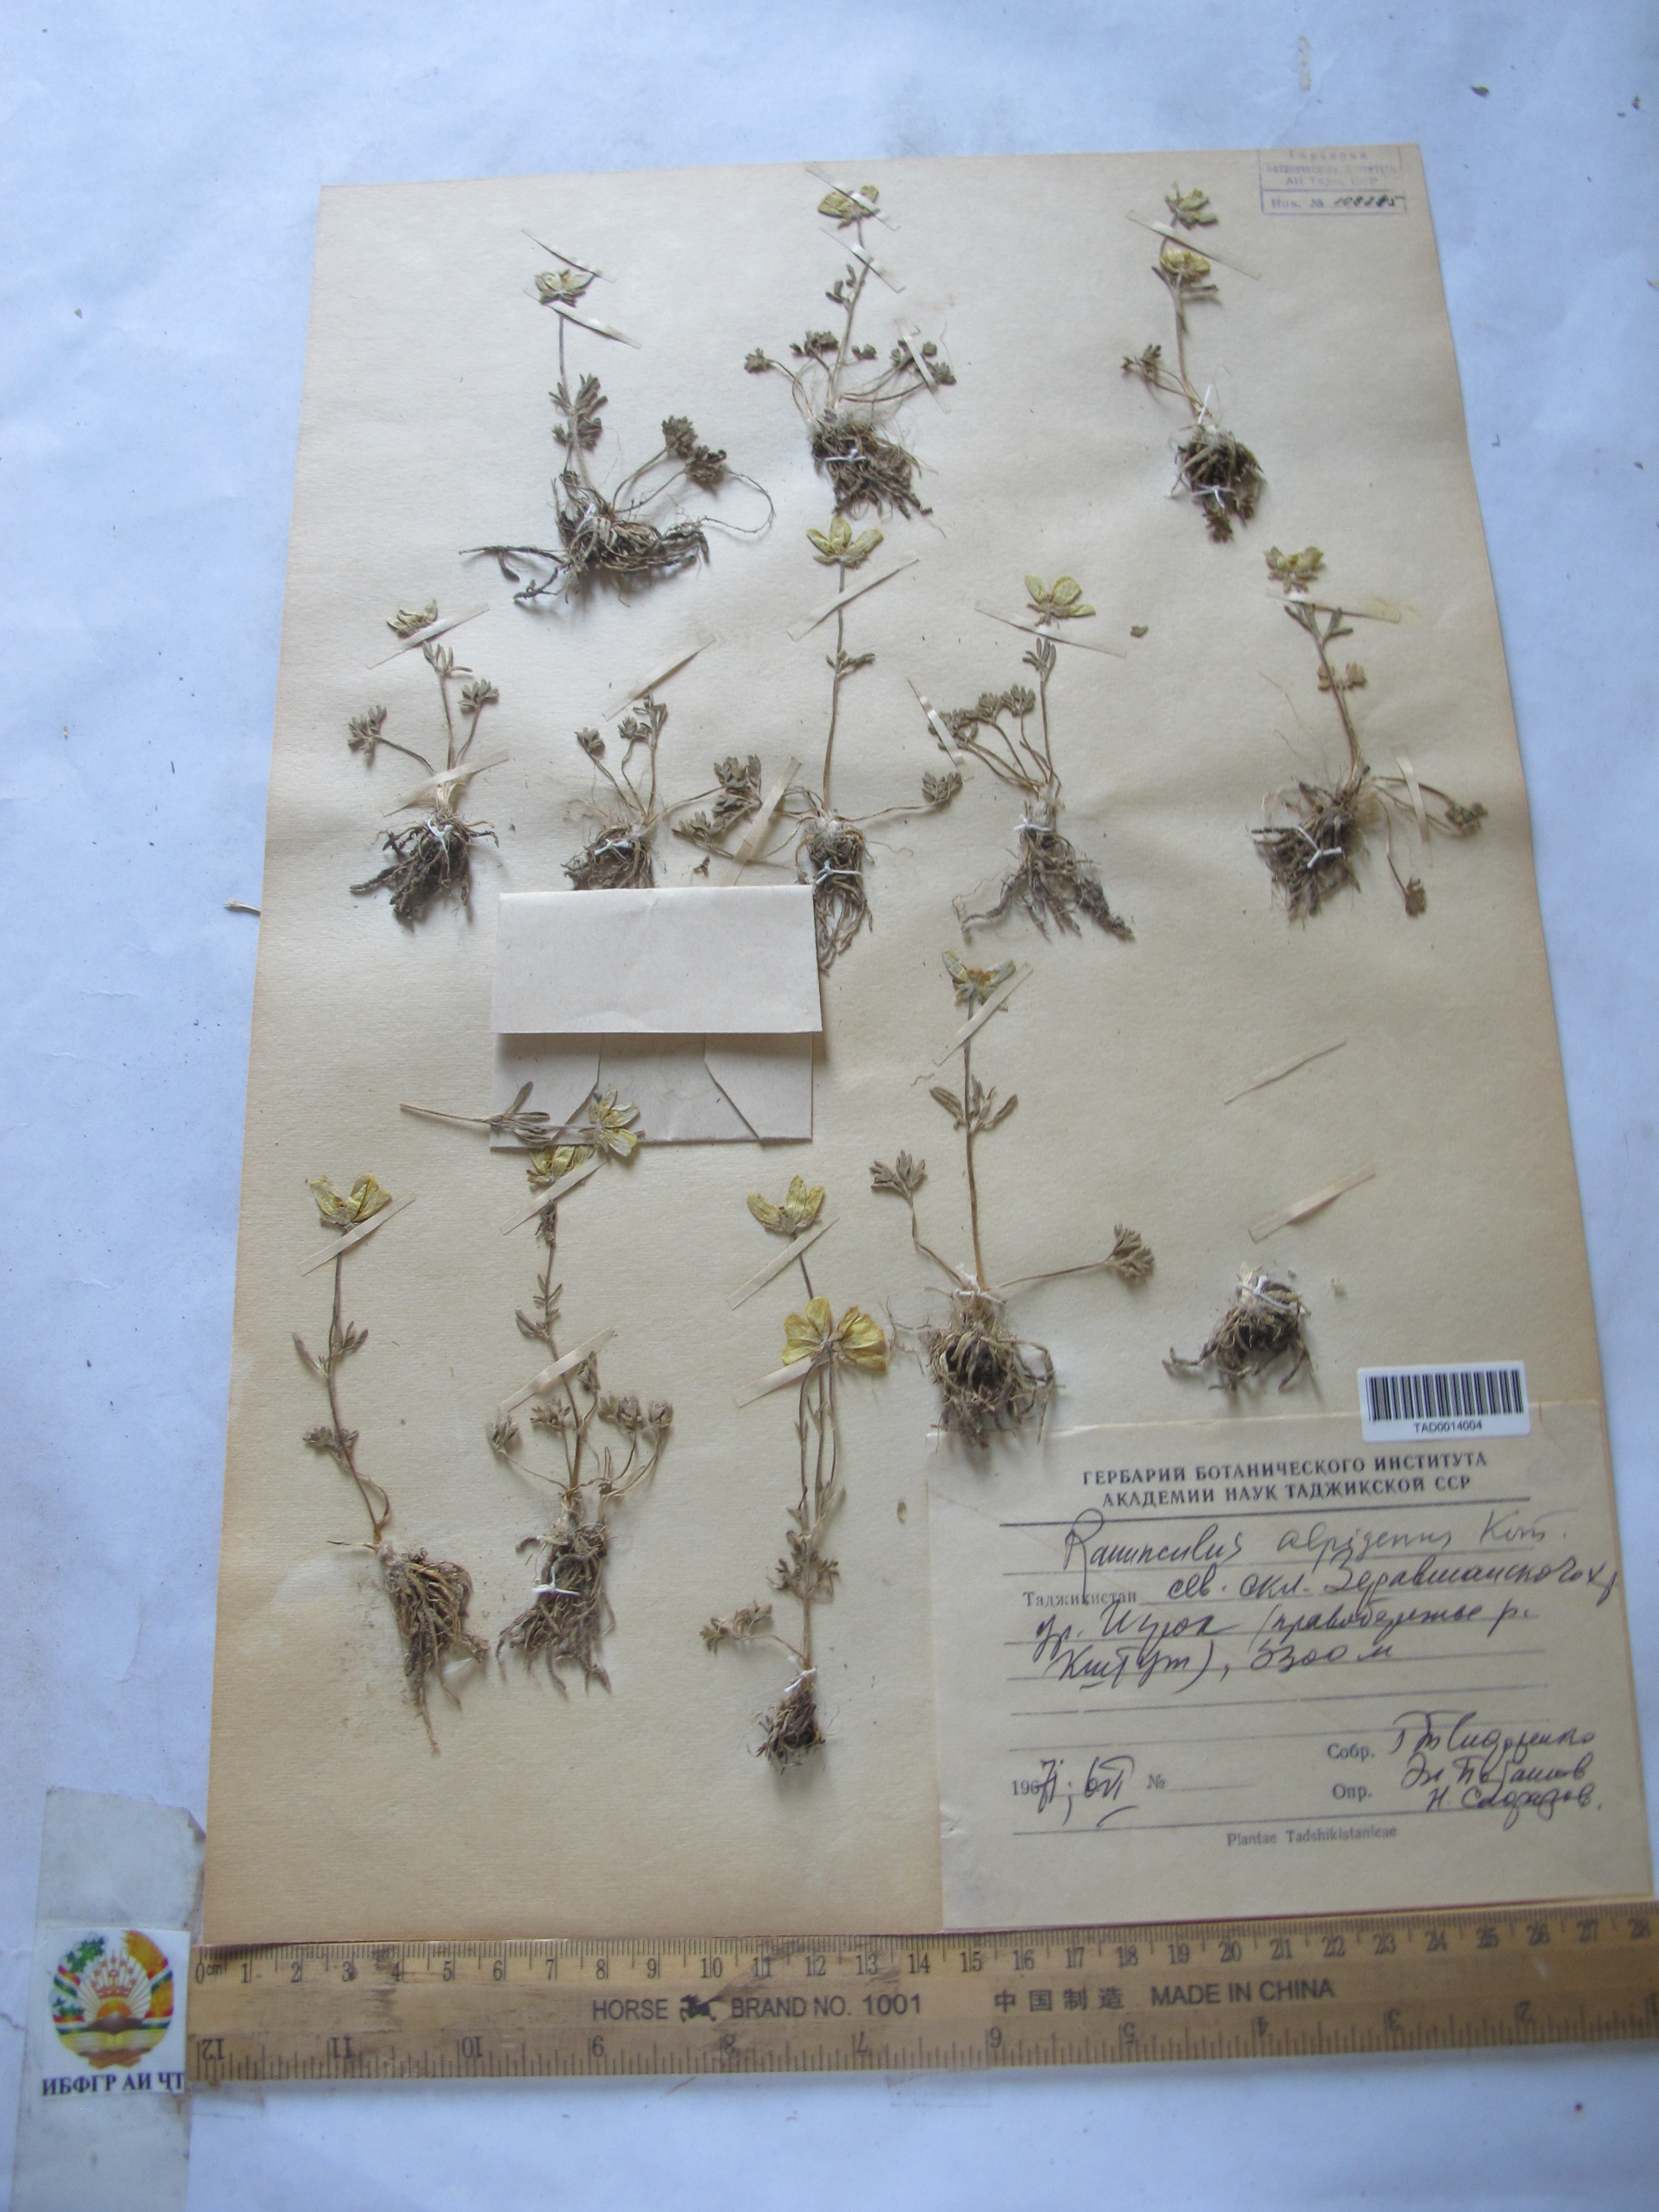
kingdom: Plantae
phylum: Tracheophyta
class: Magnoliopsida
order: Ranunculales
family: Ranunculaceae
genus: Ranunculus
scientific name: Ranunculus arvensis
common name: Corn buttercup
